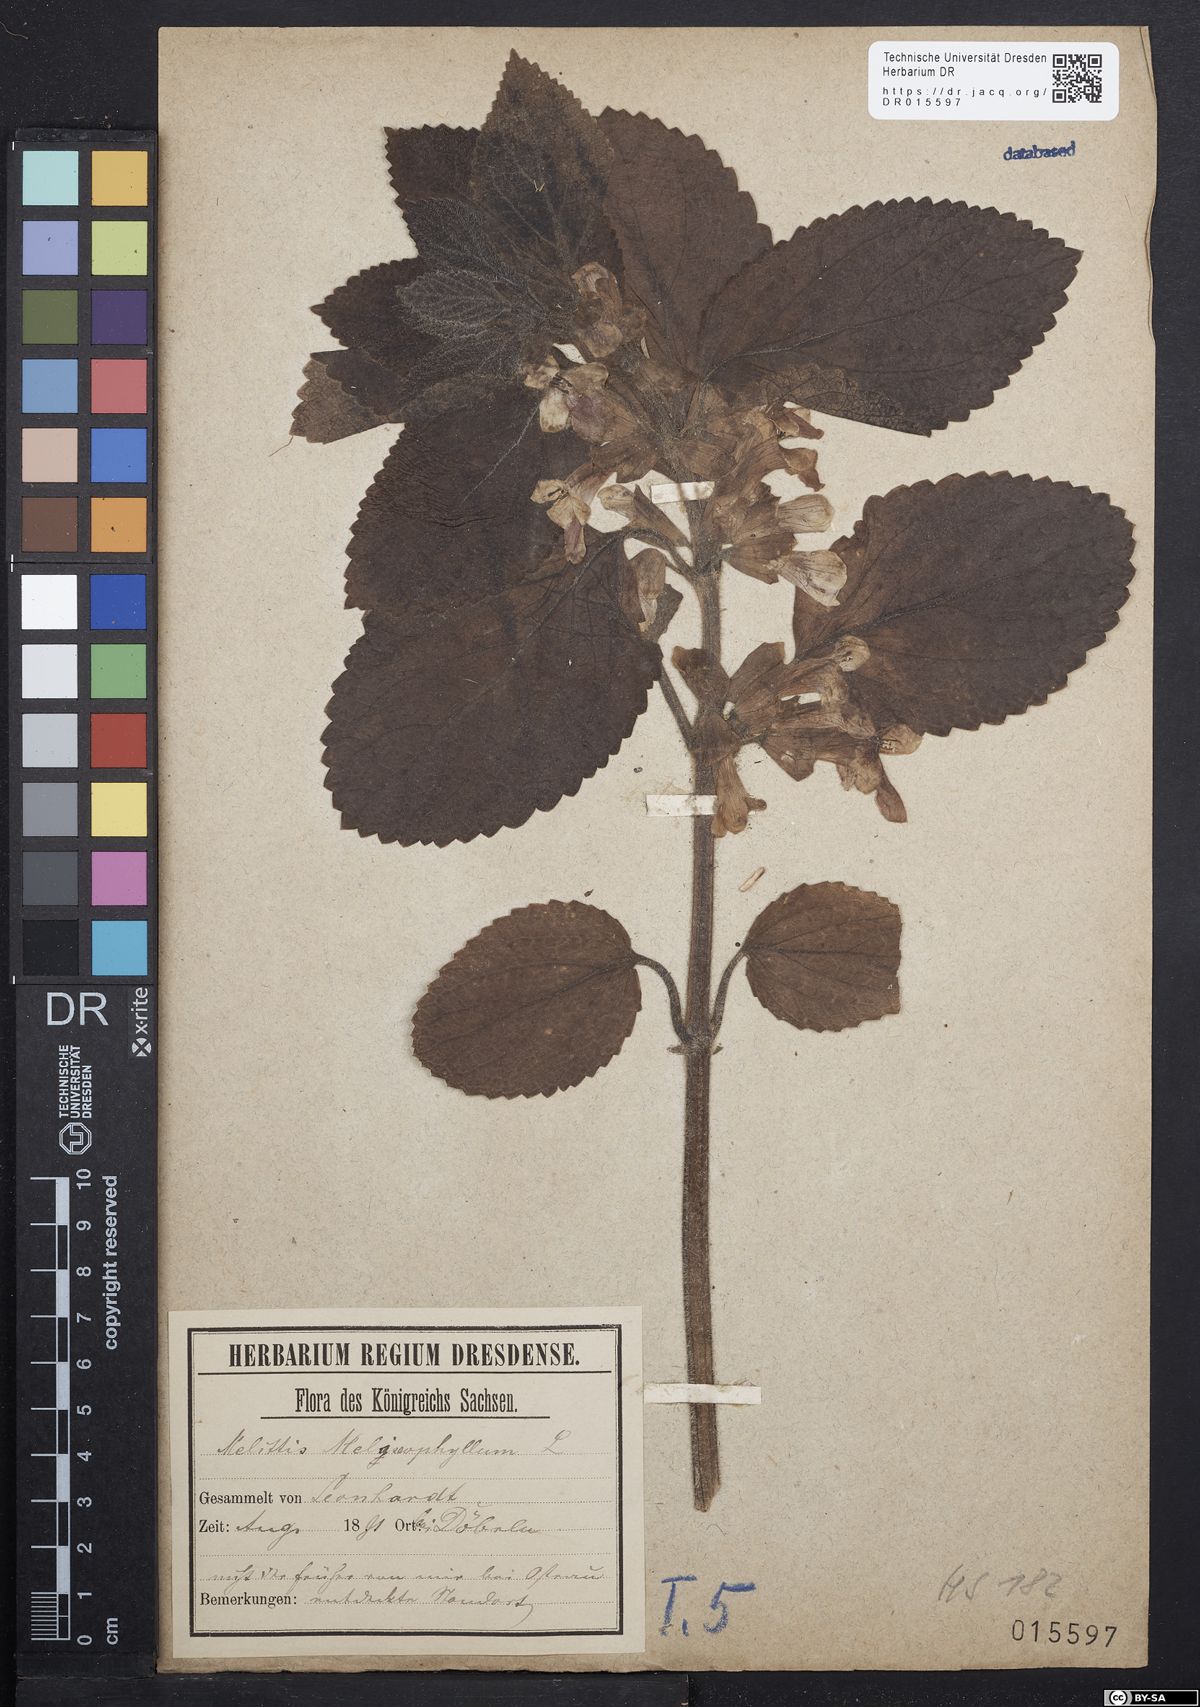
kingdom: Plantae
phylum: Tracheophyta
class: Magnoliopsida
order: Lamiales
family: Lamiaceae
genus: Melittis
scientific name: Melittis melissophyllum
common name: Bastard balm
